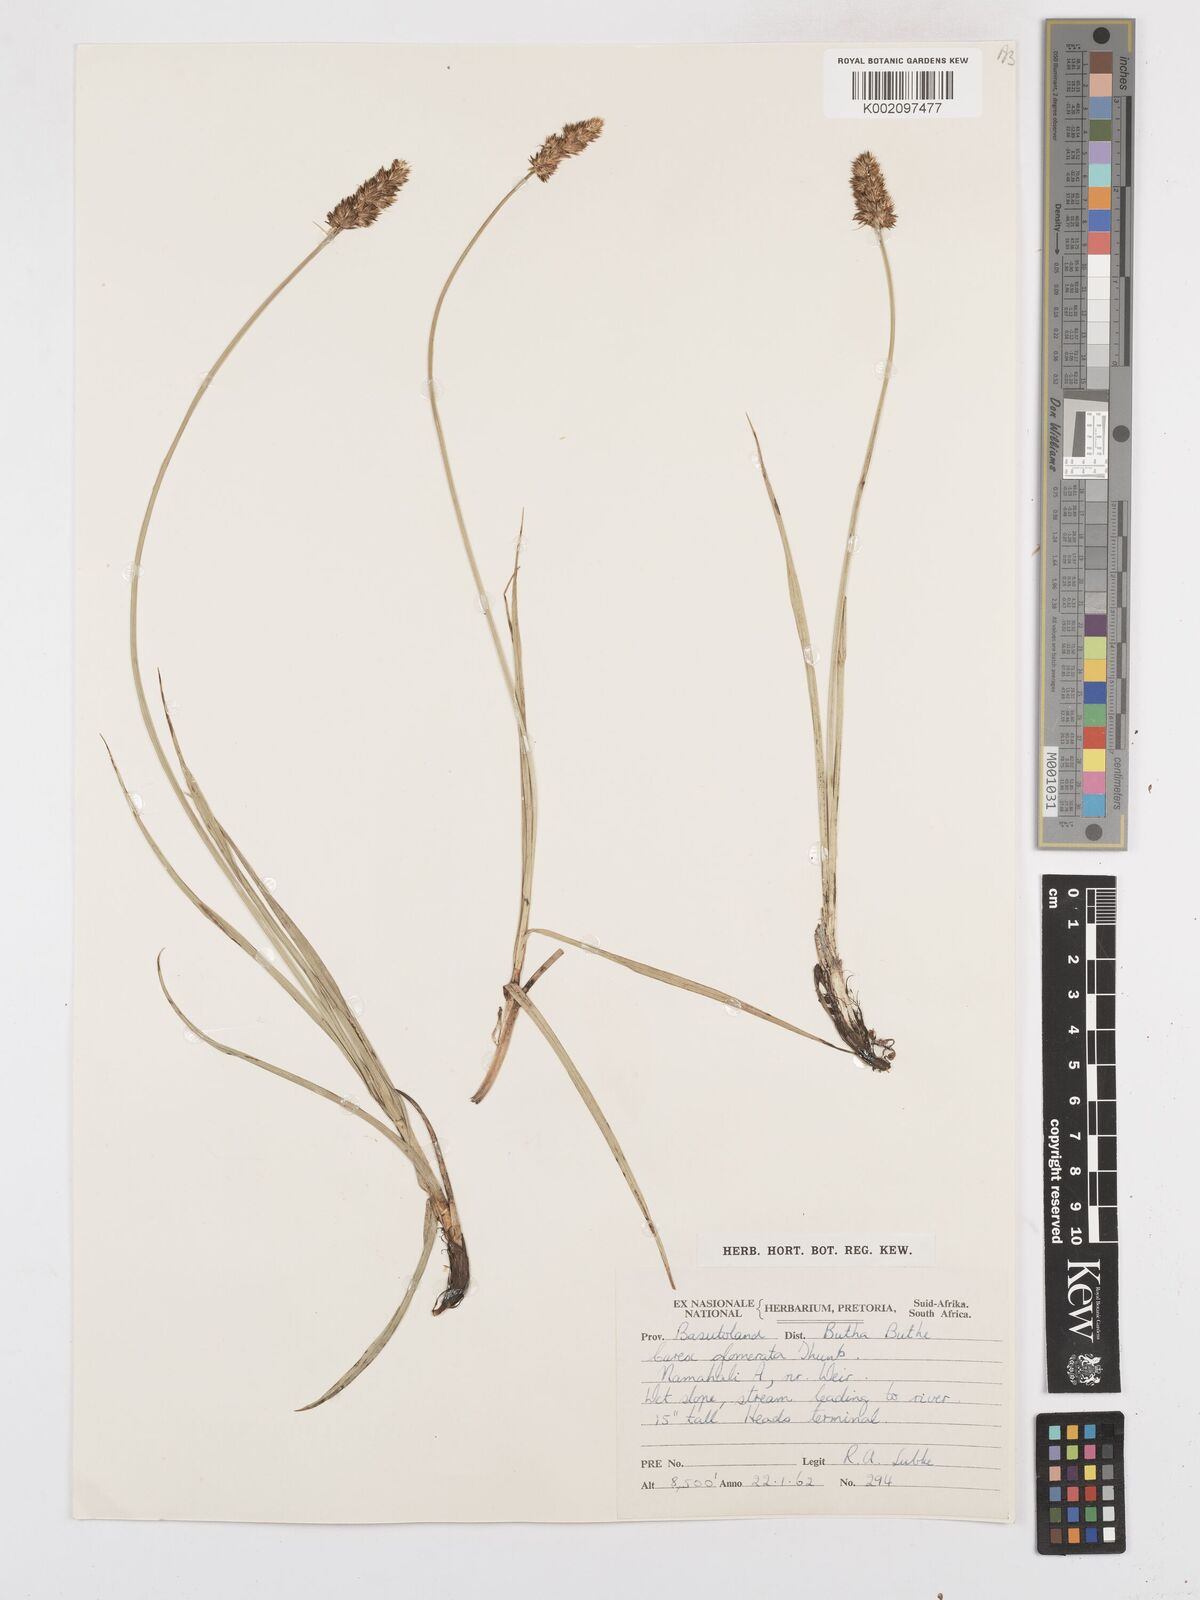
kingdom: Plantae
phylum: Tracheophyta
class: Liliopsida
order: Poales
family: Cyperaceae
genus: Carex
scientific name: Carex glomerata
